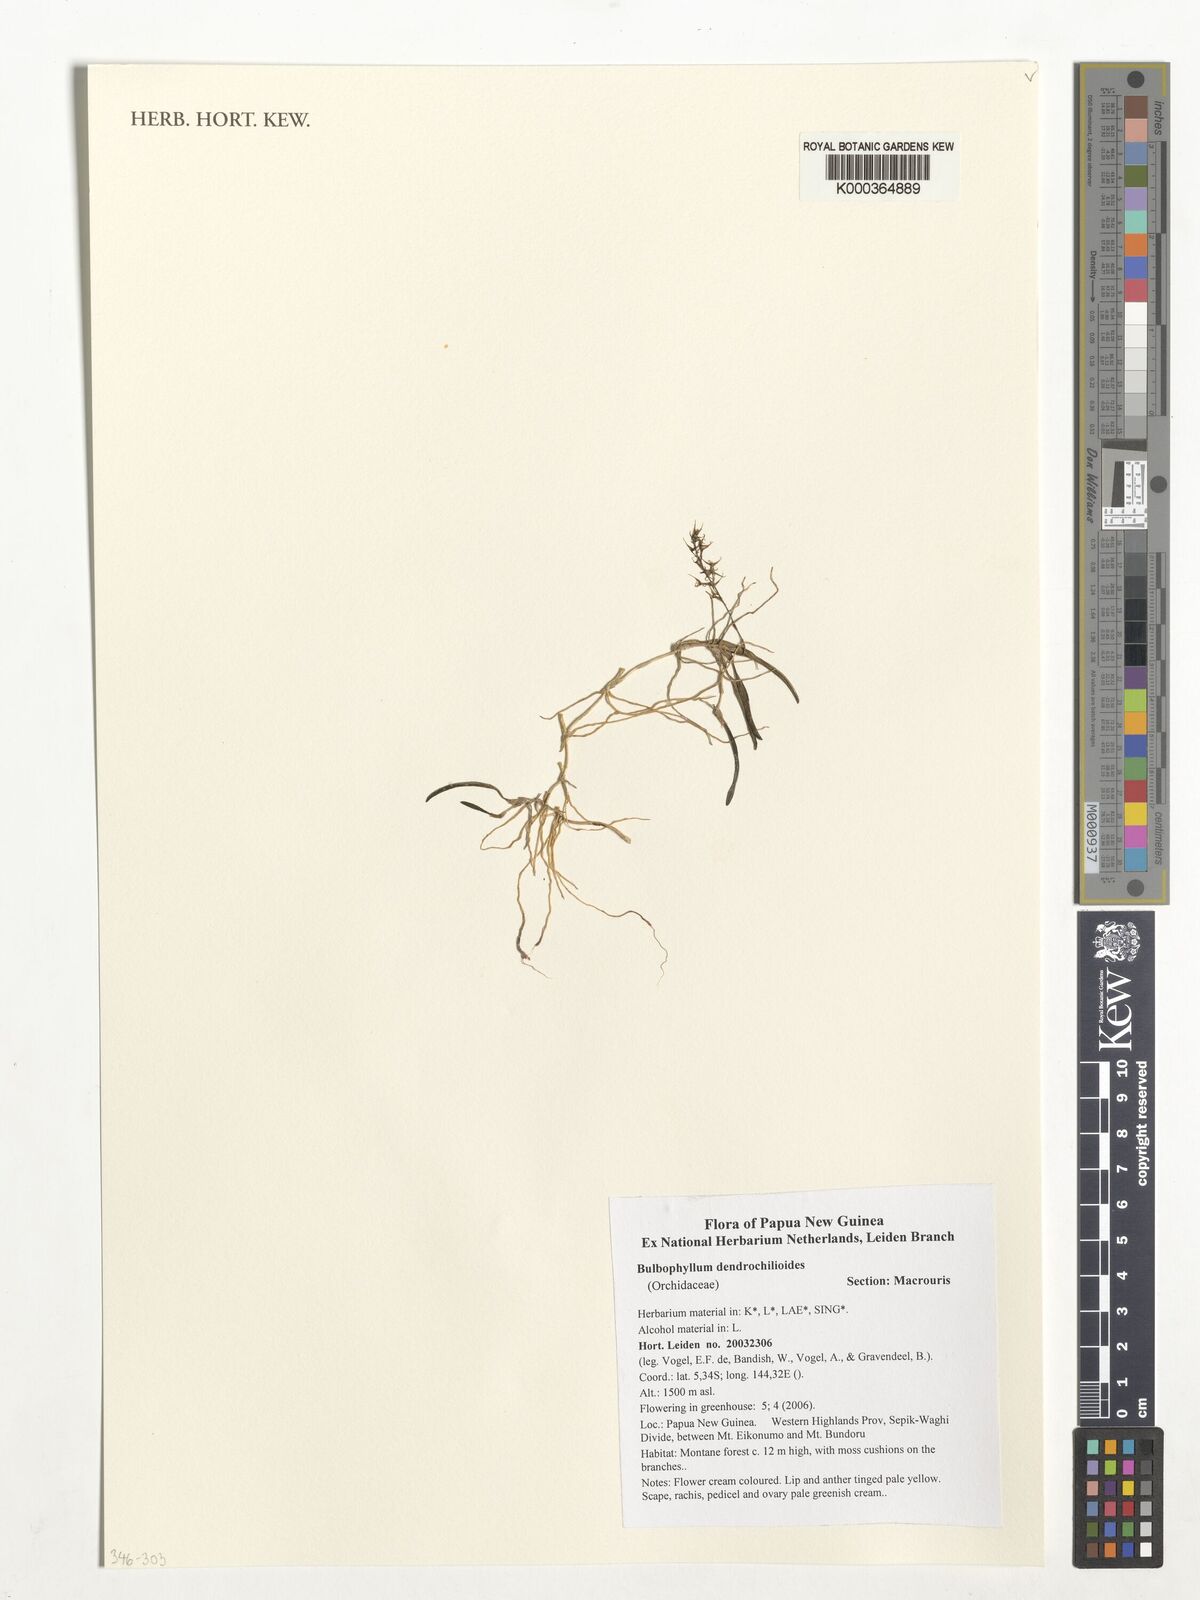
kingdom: Plantae
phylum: Tracheophyta
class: Liliopsida
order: Asparagales
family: Orchidaceae
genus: Bulbophyllum
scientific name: Bulbophyllum dendrochiloides
